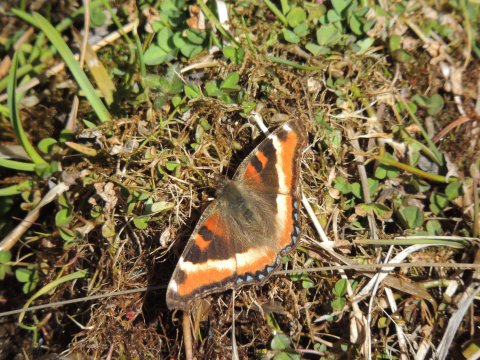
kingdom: Animalia
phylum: Arthropoda
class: Insecta
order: Lepidoptera
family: Nymphalidae
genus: Aglais
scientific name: Aglais milberti
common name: Milbert's Tortoiseshell
